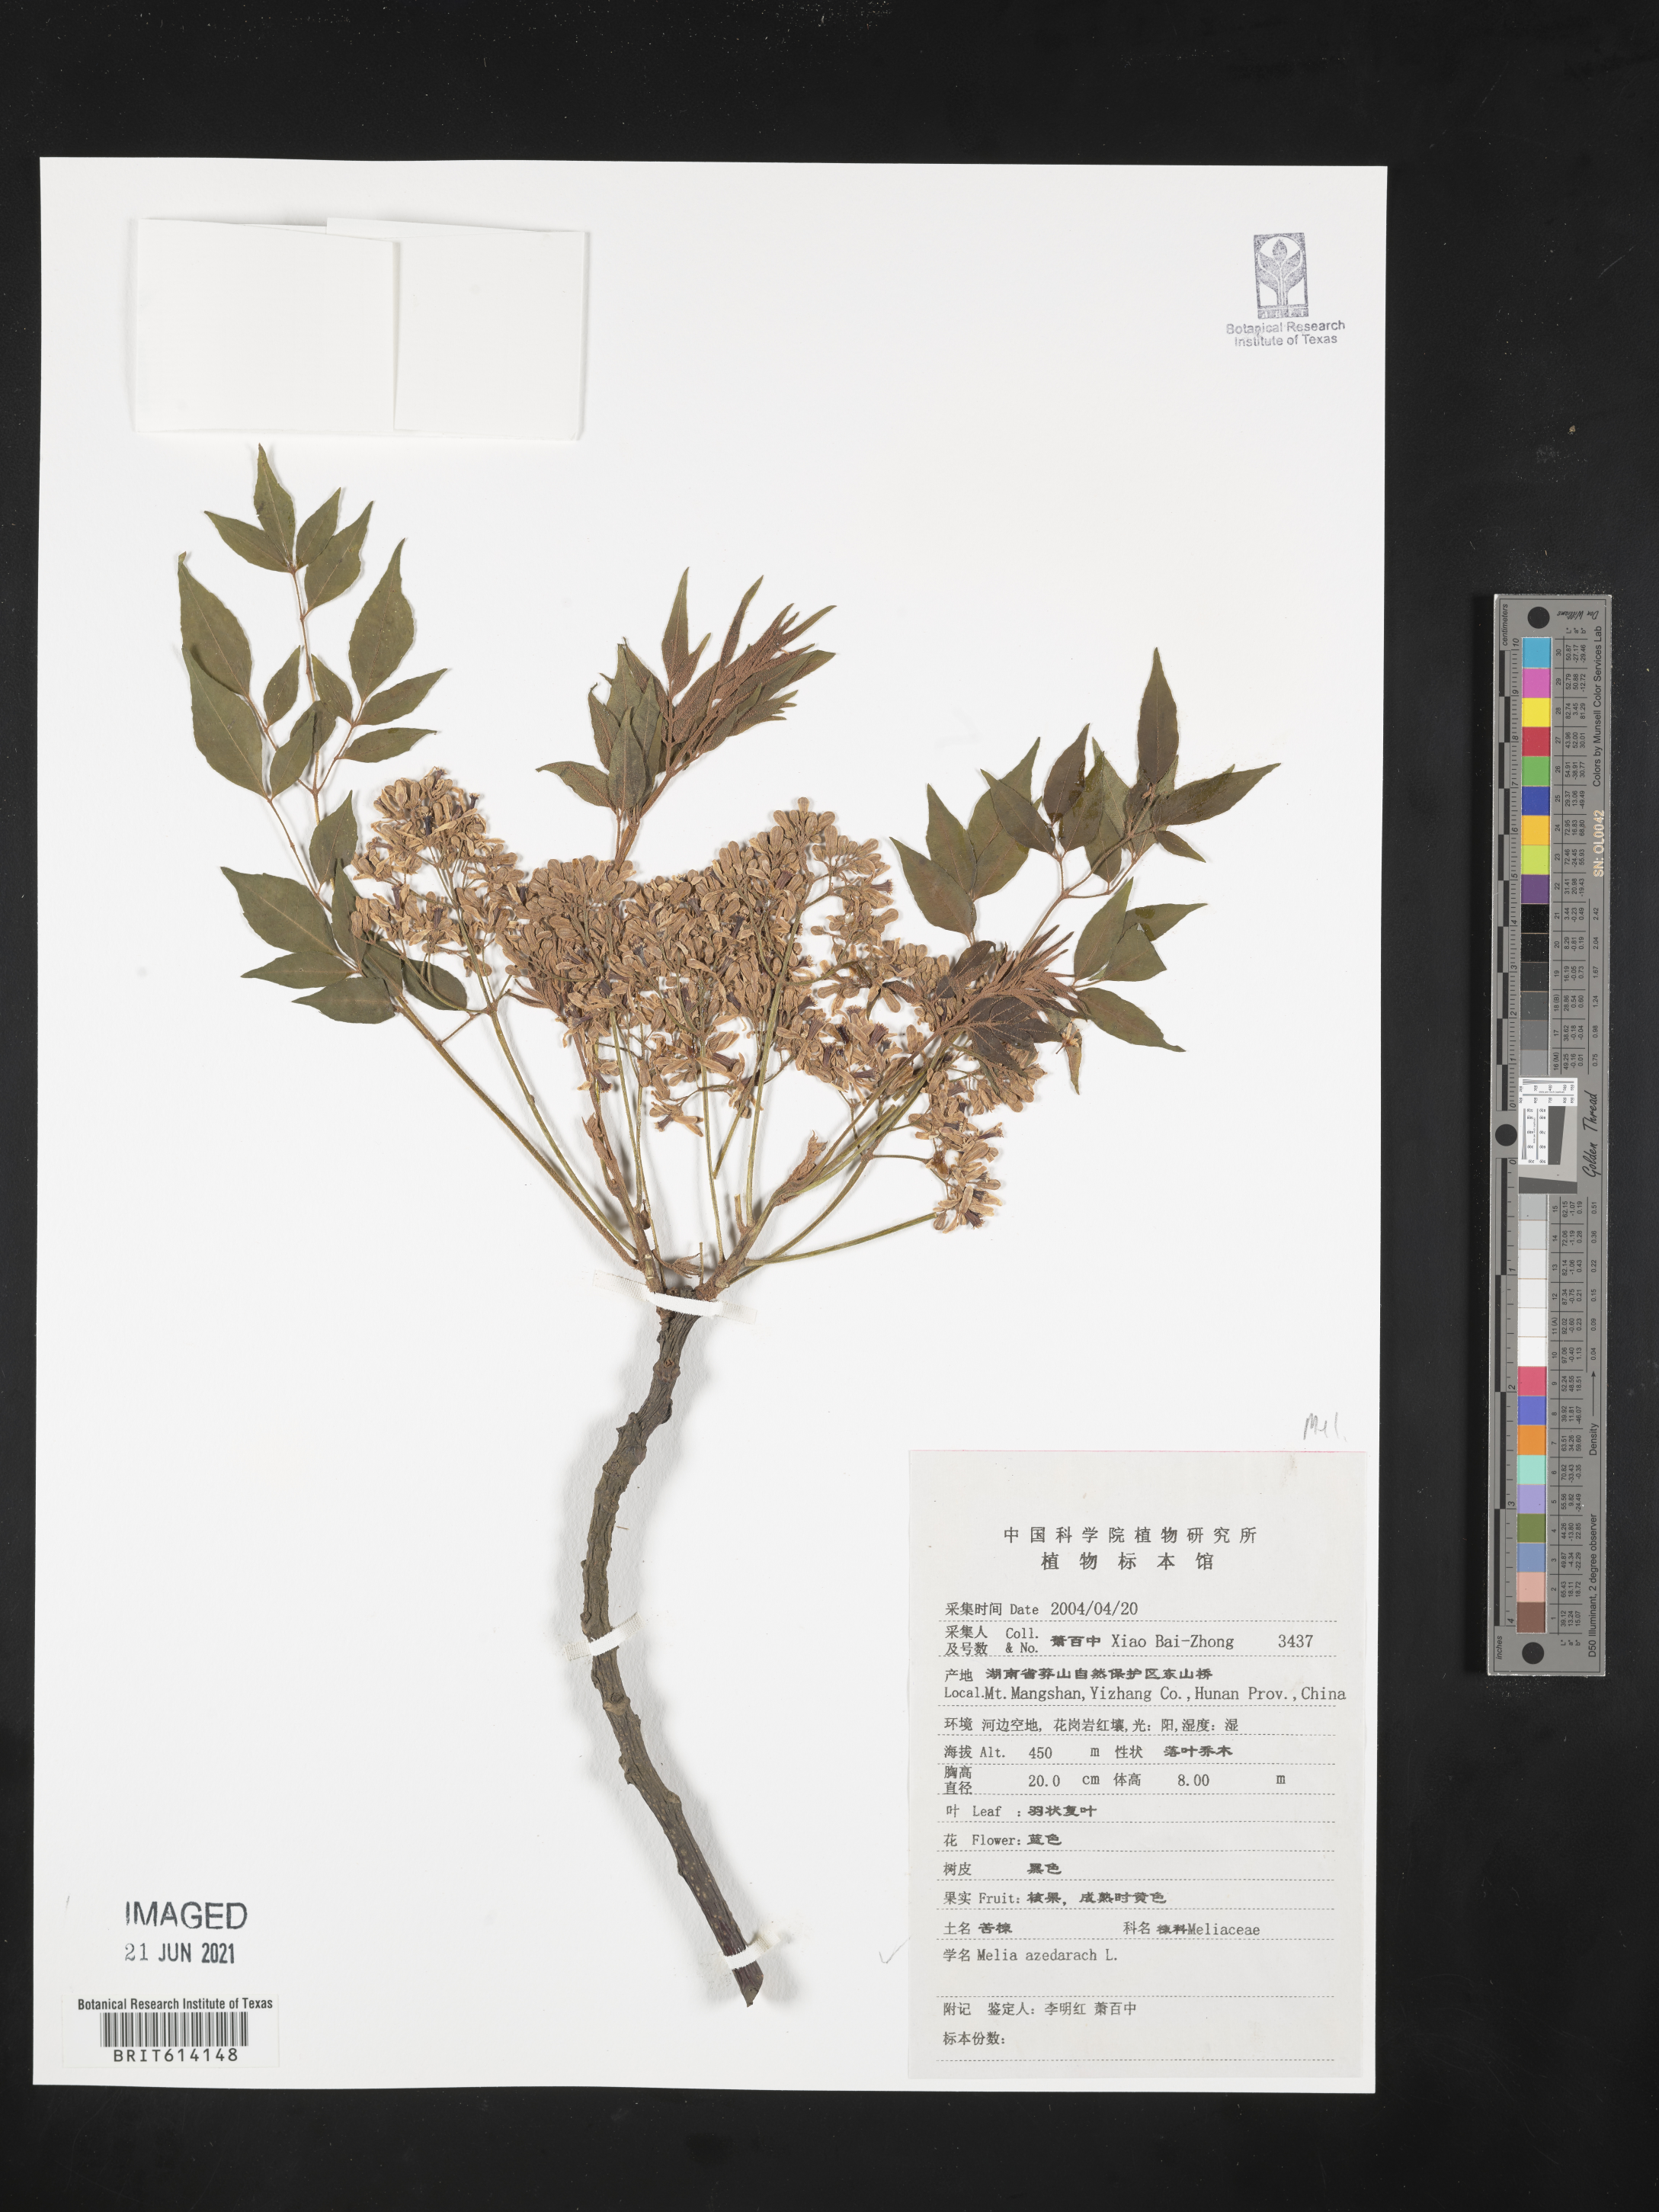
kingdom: Plantae
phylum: Tracheophyta
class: Magnoliopsida
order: Sapindales
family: Meliaceae
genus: Melia
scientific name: Melia azedarach
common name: Chinaberrytree
